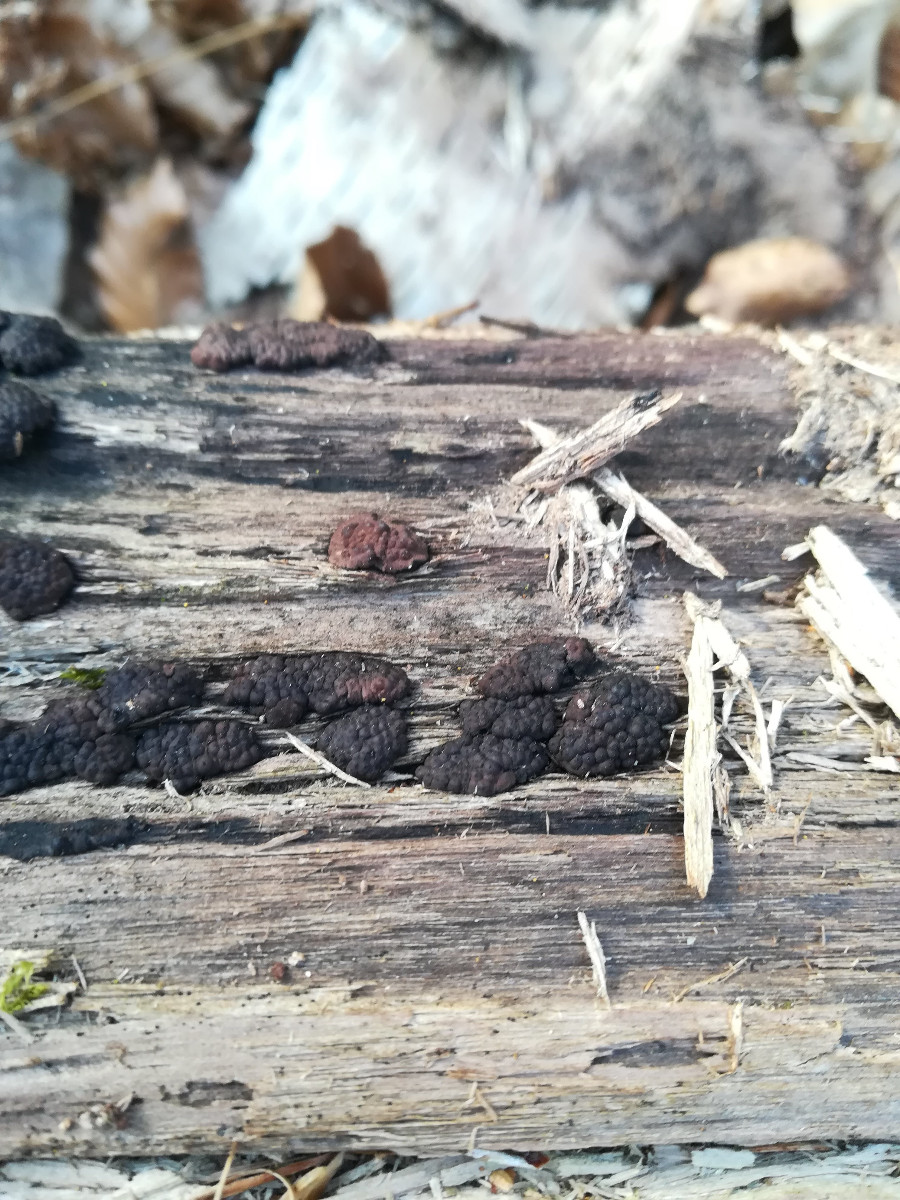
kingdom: Fungi
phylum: Ascomycota
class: Sordariomycetes
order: Xylariales
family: Hypoxylaceae
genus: Jackrogersella
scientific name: Jackrogersella multiformis
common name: foranderlig kulbær
